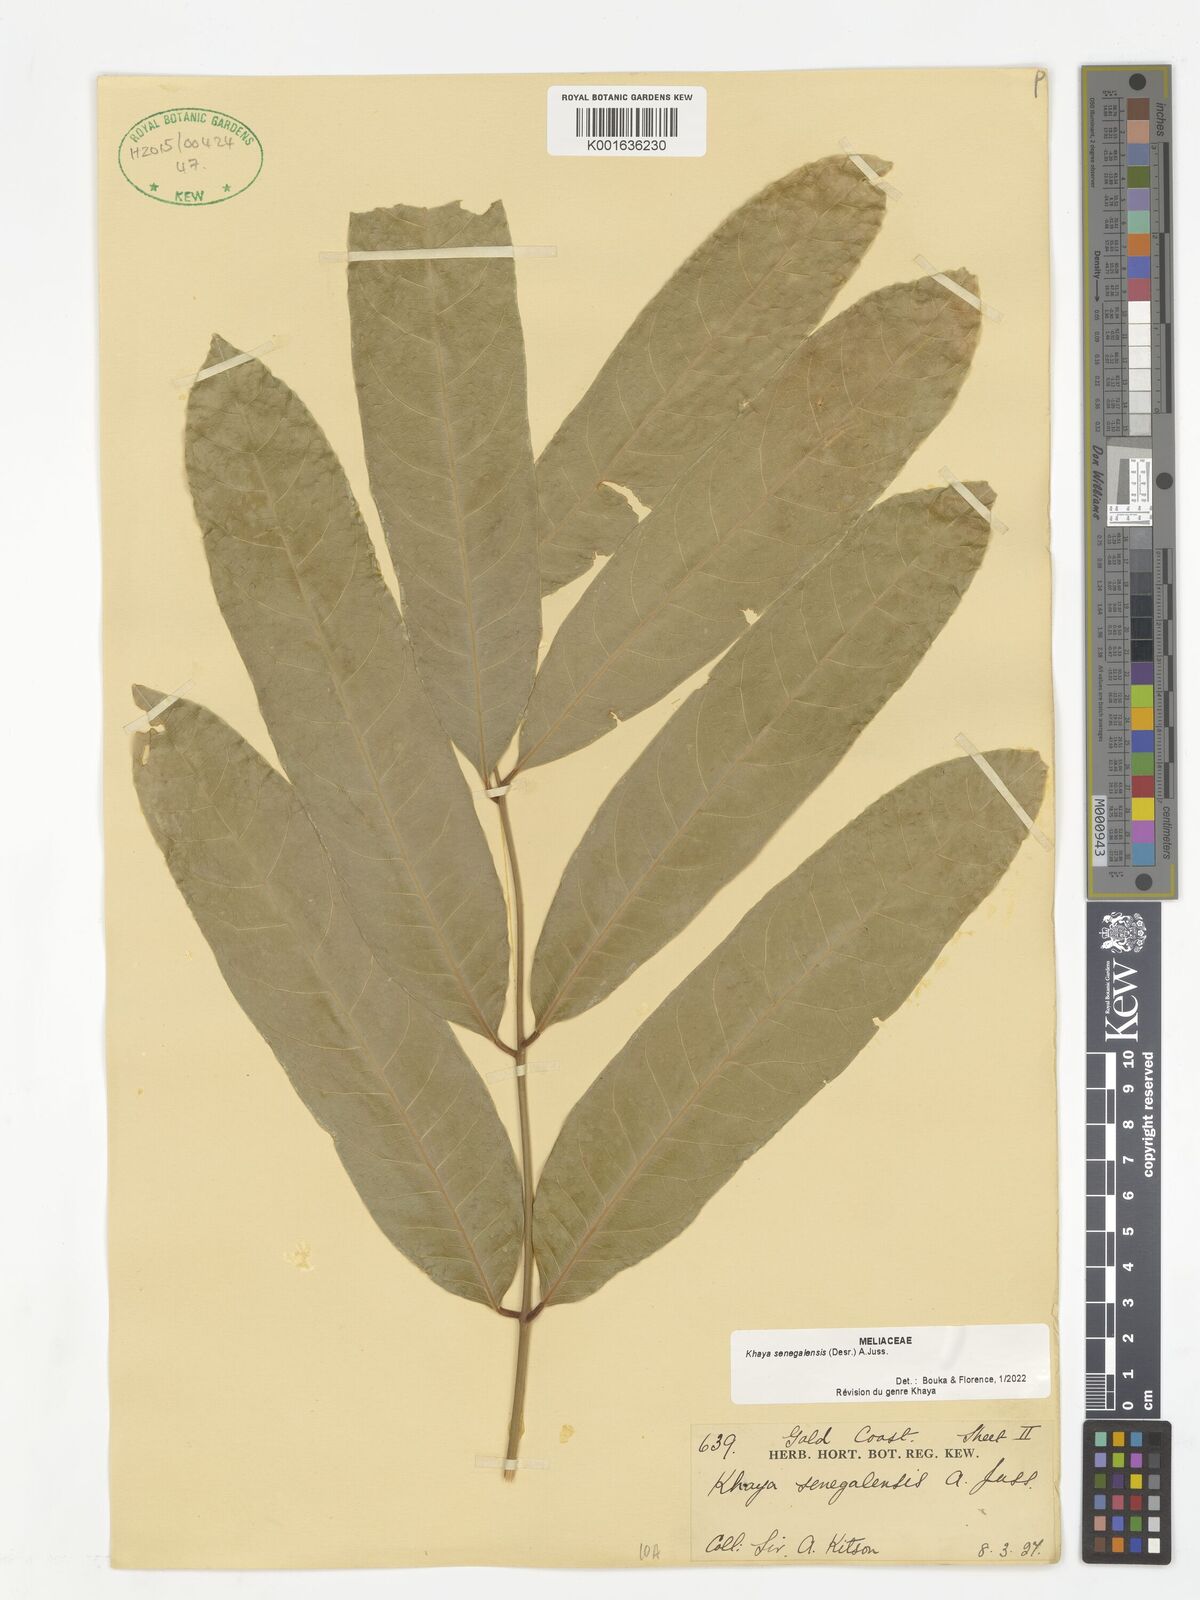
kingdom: Plantae
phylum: Tracheophyta
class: Magnoliopsida
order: Sapindales
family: Meliaceae
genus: Khaya
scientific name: Khaya senegalensis
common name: Senegal mahogany
